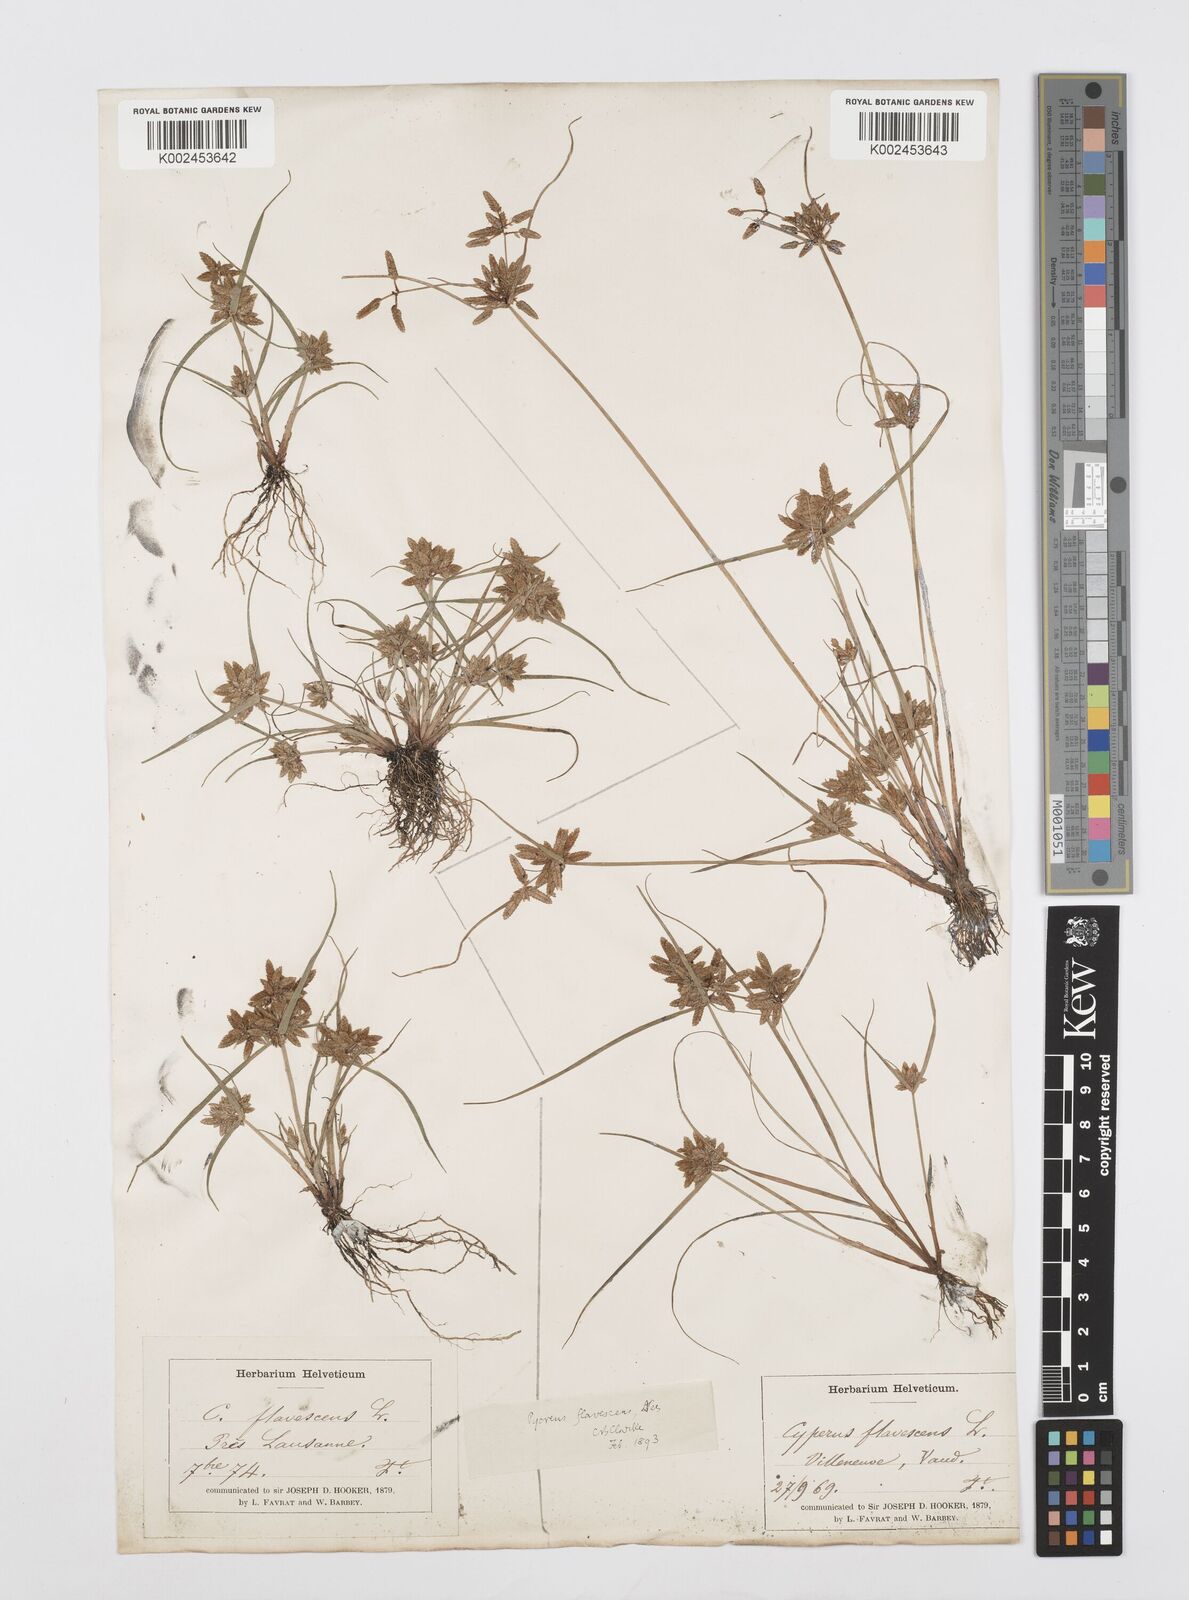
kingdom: Plantae
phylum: Tracheophyta
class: Liliopsida
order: Poales
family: Cyperaceae
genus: Cyperus
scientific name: Cyperus flavescens
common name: Yellow galingale
